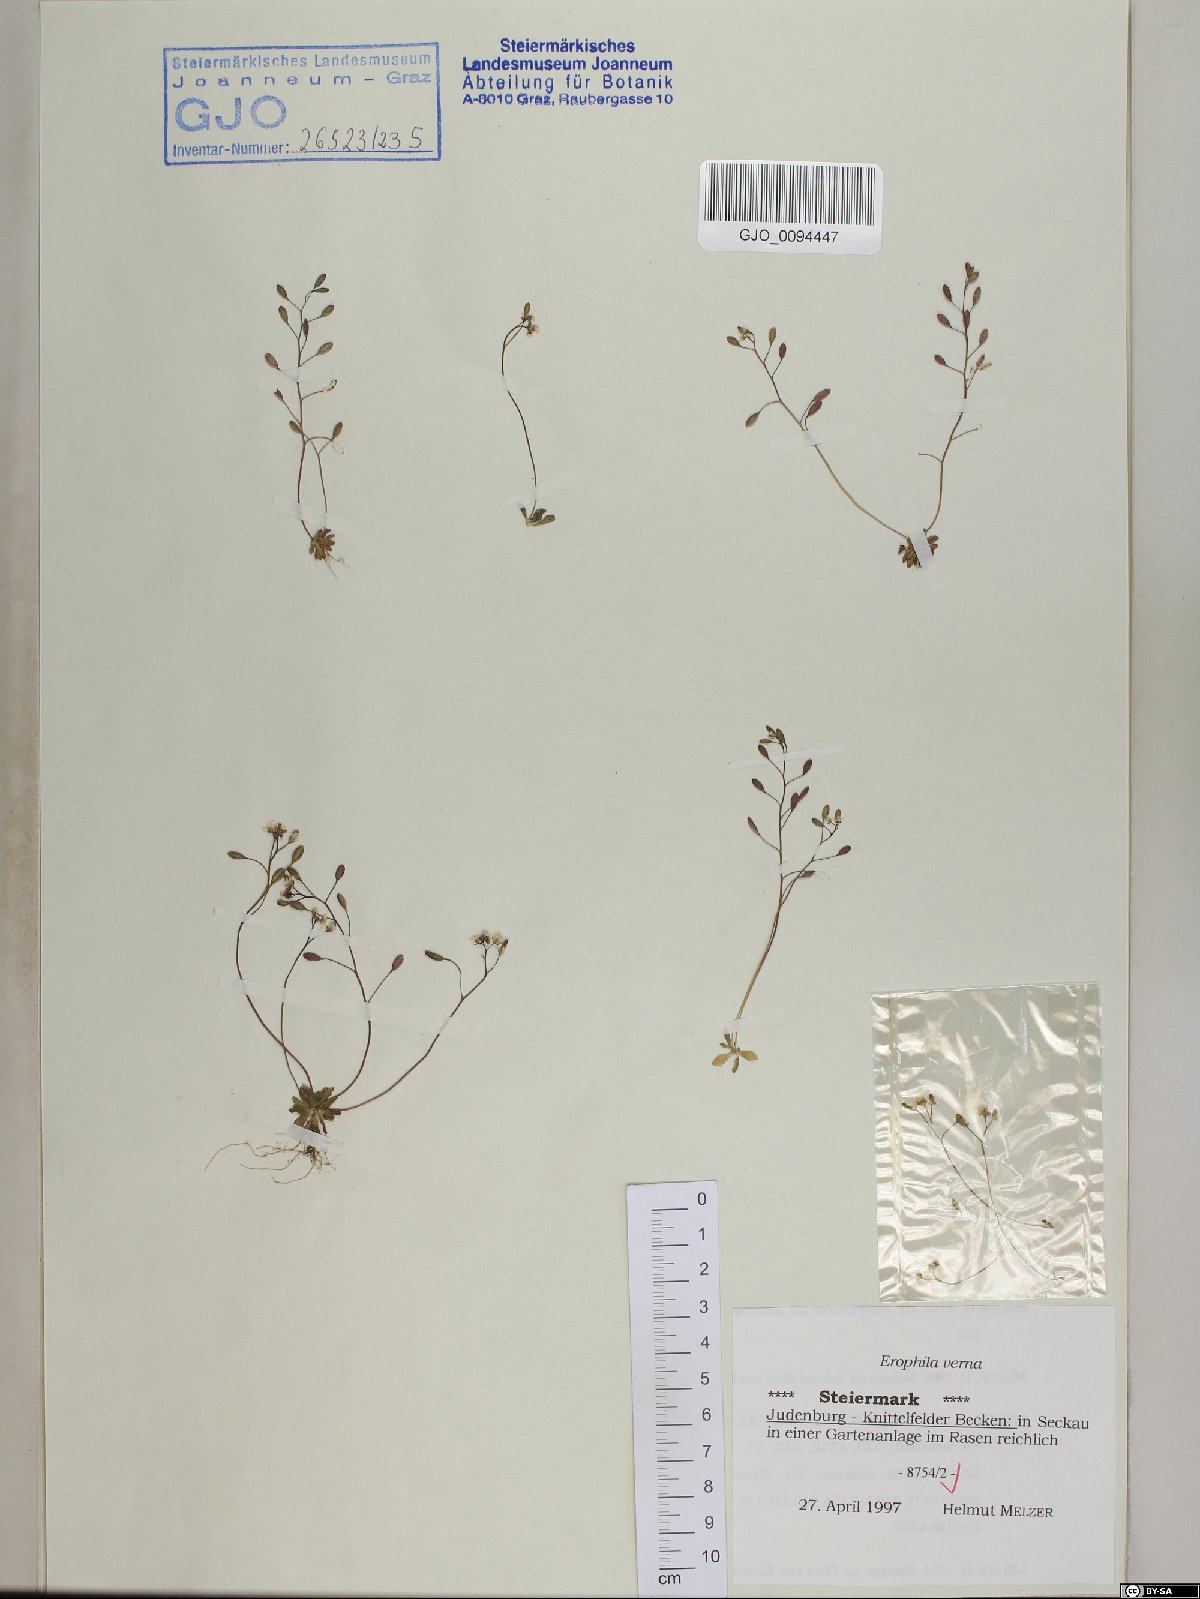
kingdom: Plantae
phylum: Tracheophyta
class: Magnoliopsida
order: Brassicales
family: Brassicaceae
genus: Draba
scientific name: Draba verna
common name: Spring draba
